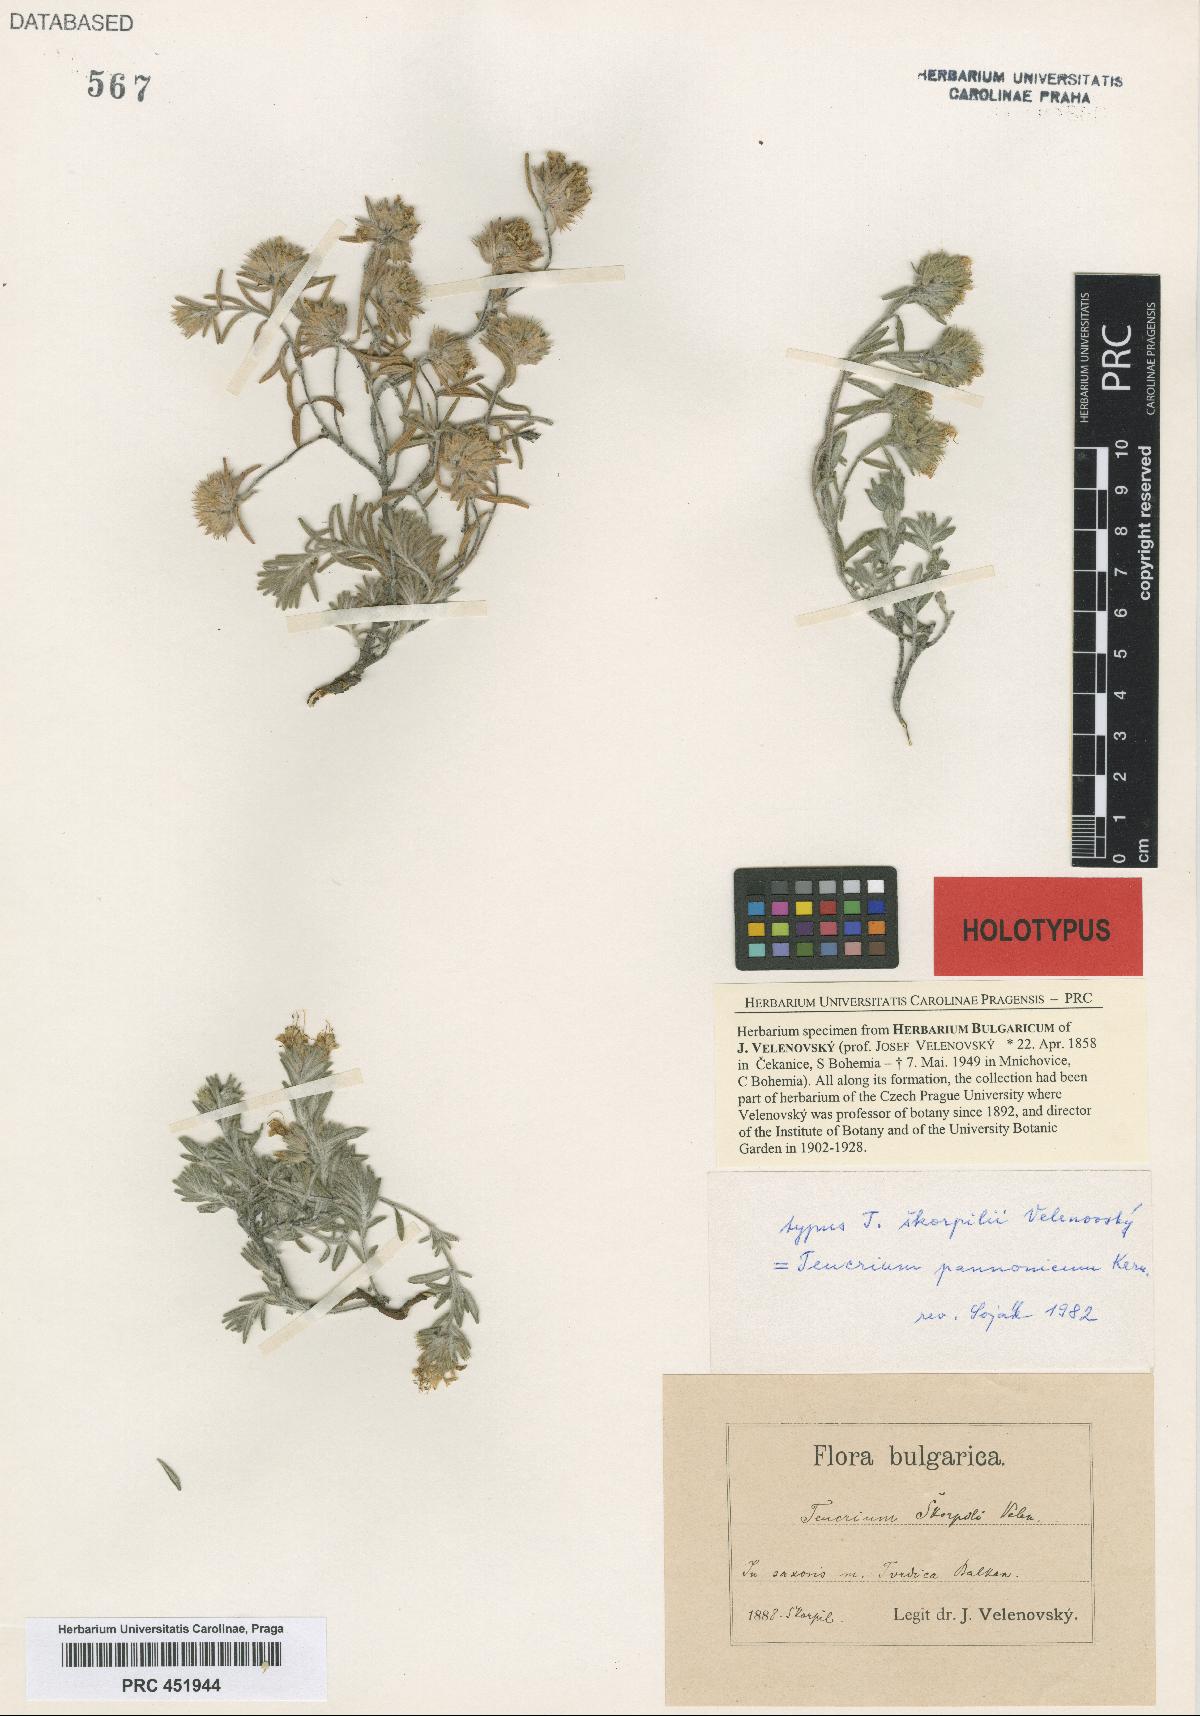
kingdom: Plantae
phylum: Tracheophyta
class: Magnoliopsida
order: Lamiales
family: Lamiaceae
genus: Teucrium
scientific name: Teucrium montanum
